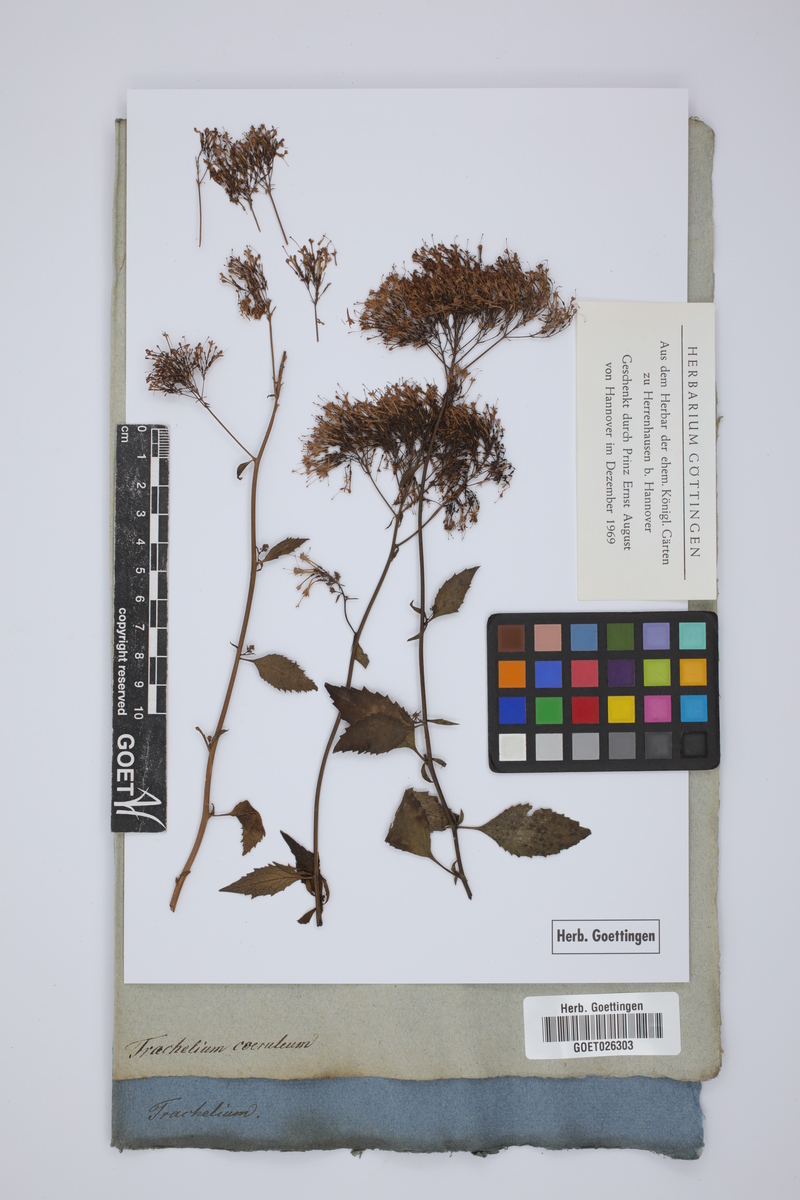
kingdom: Plantae
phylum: Tracheophyta
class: Magnoliopsida
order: Asterales
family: Campanulaceae
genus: Trachelium
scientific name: Trachelium caeruleum
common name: Throatwort
